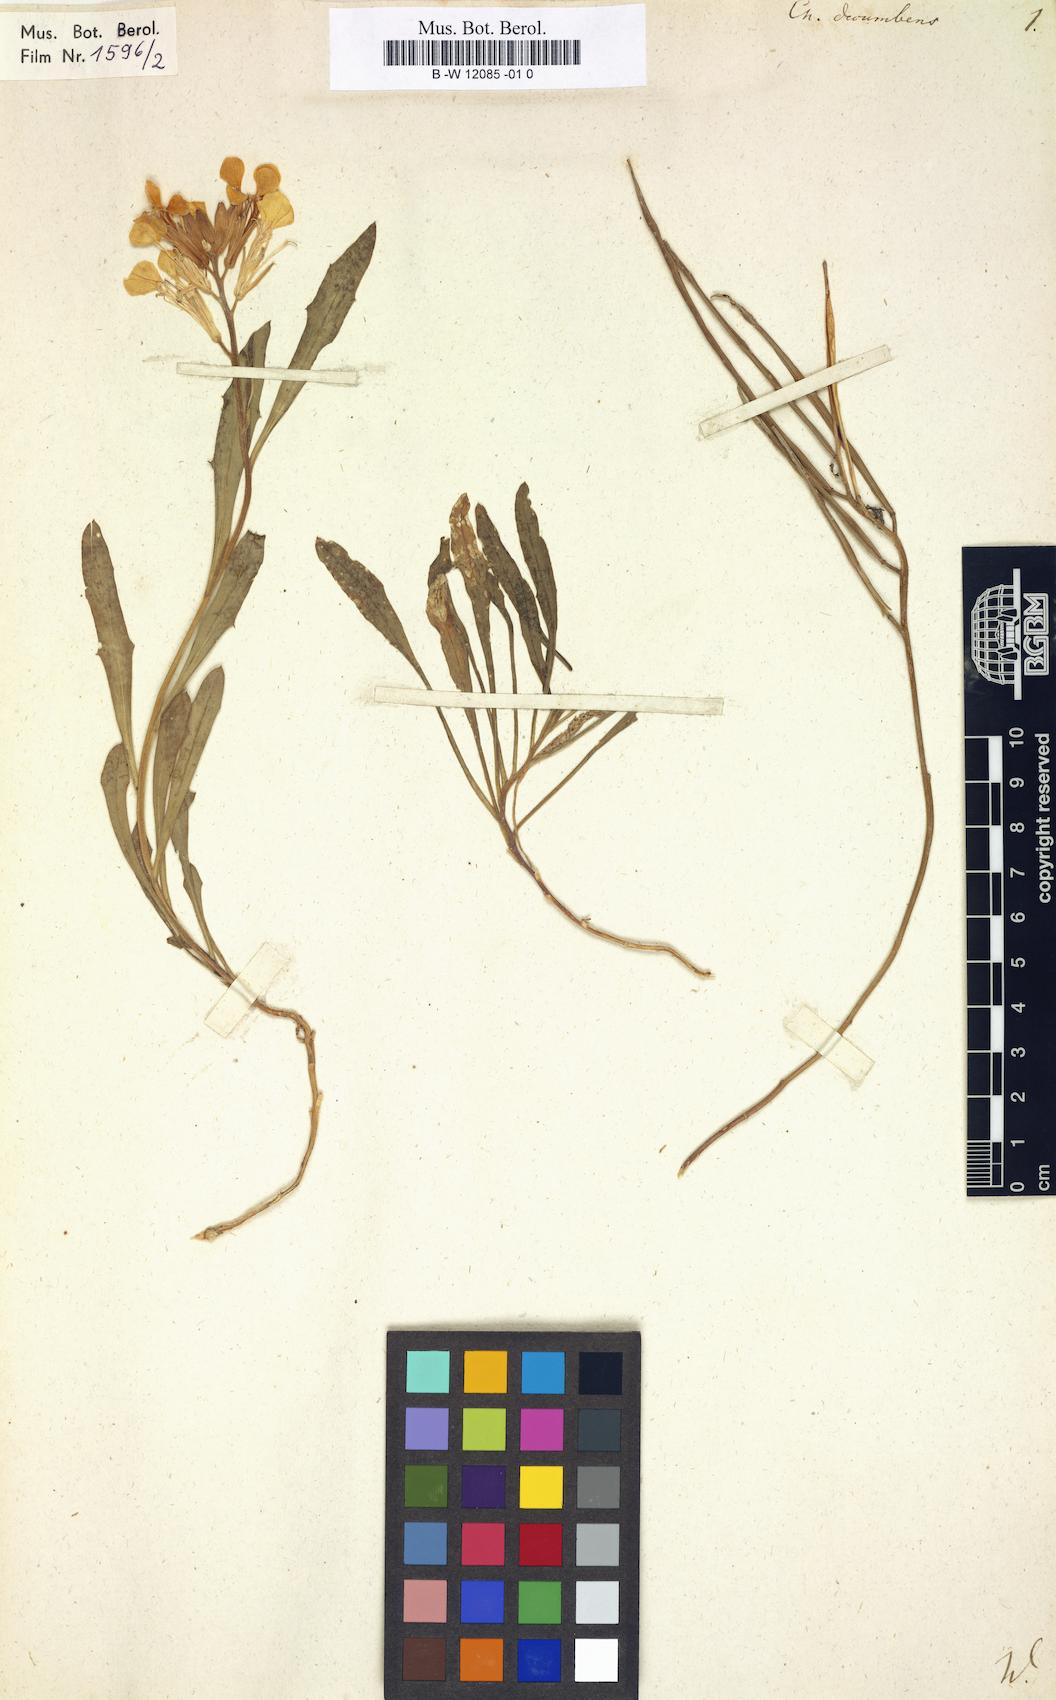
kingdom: Plantae
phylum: Tracheophyta
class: Magnoliopsida
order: Brassicales
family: Brassicaceae
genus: Erysimum
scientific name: Erysimum humile
